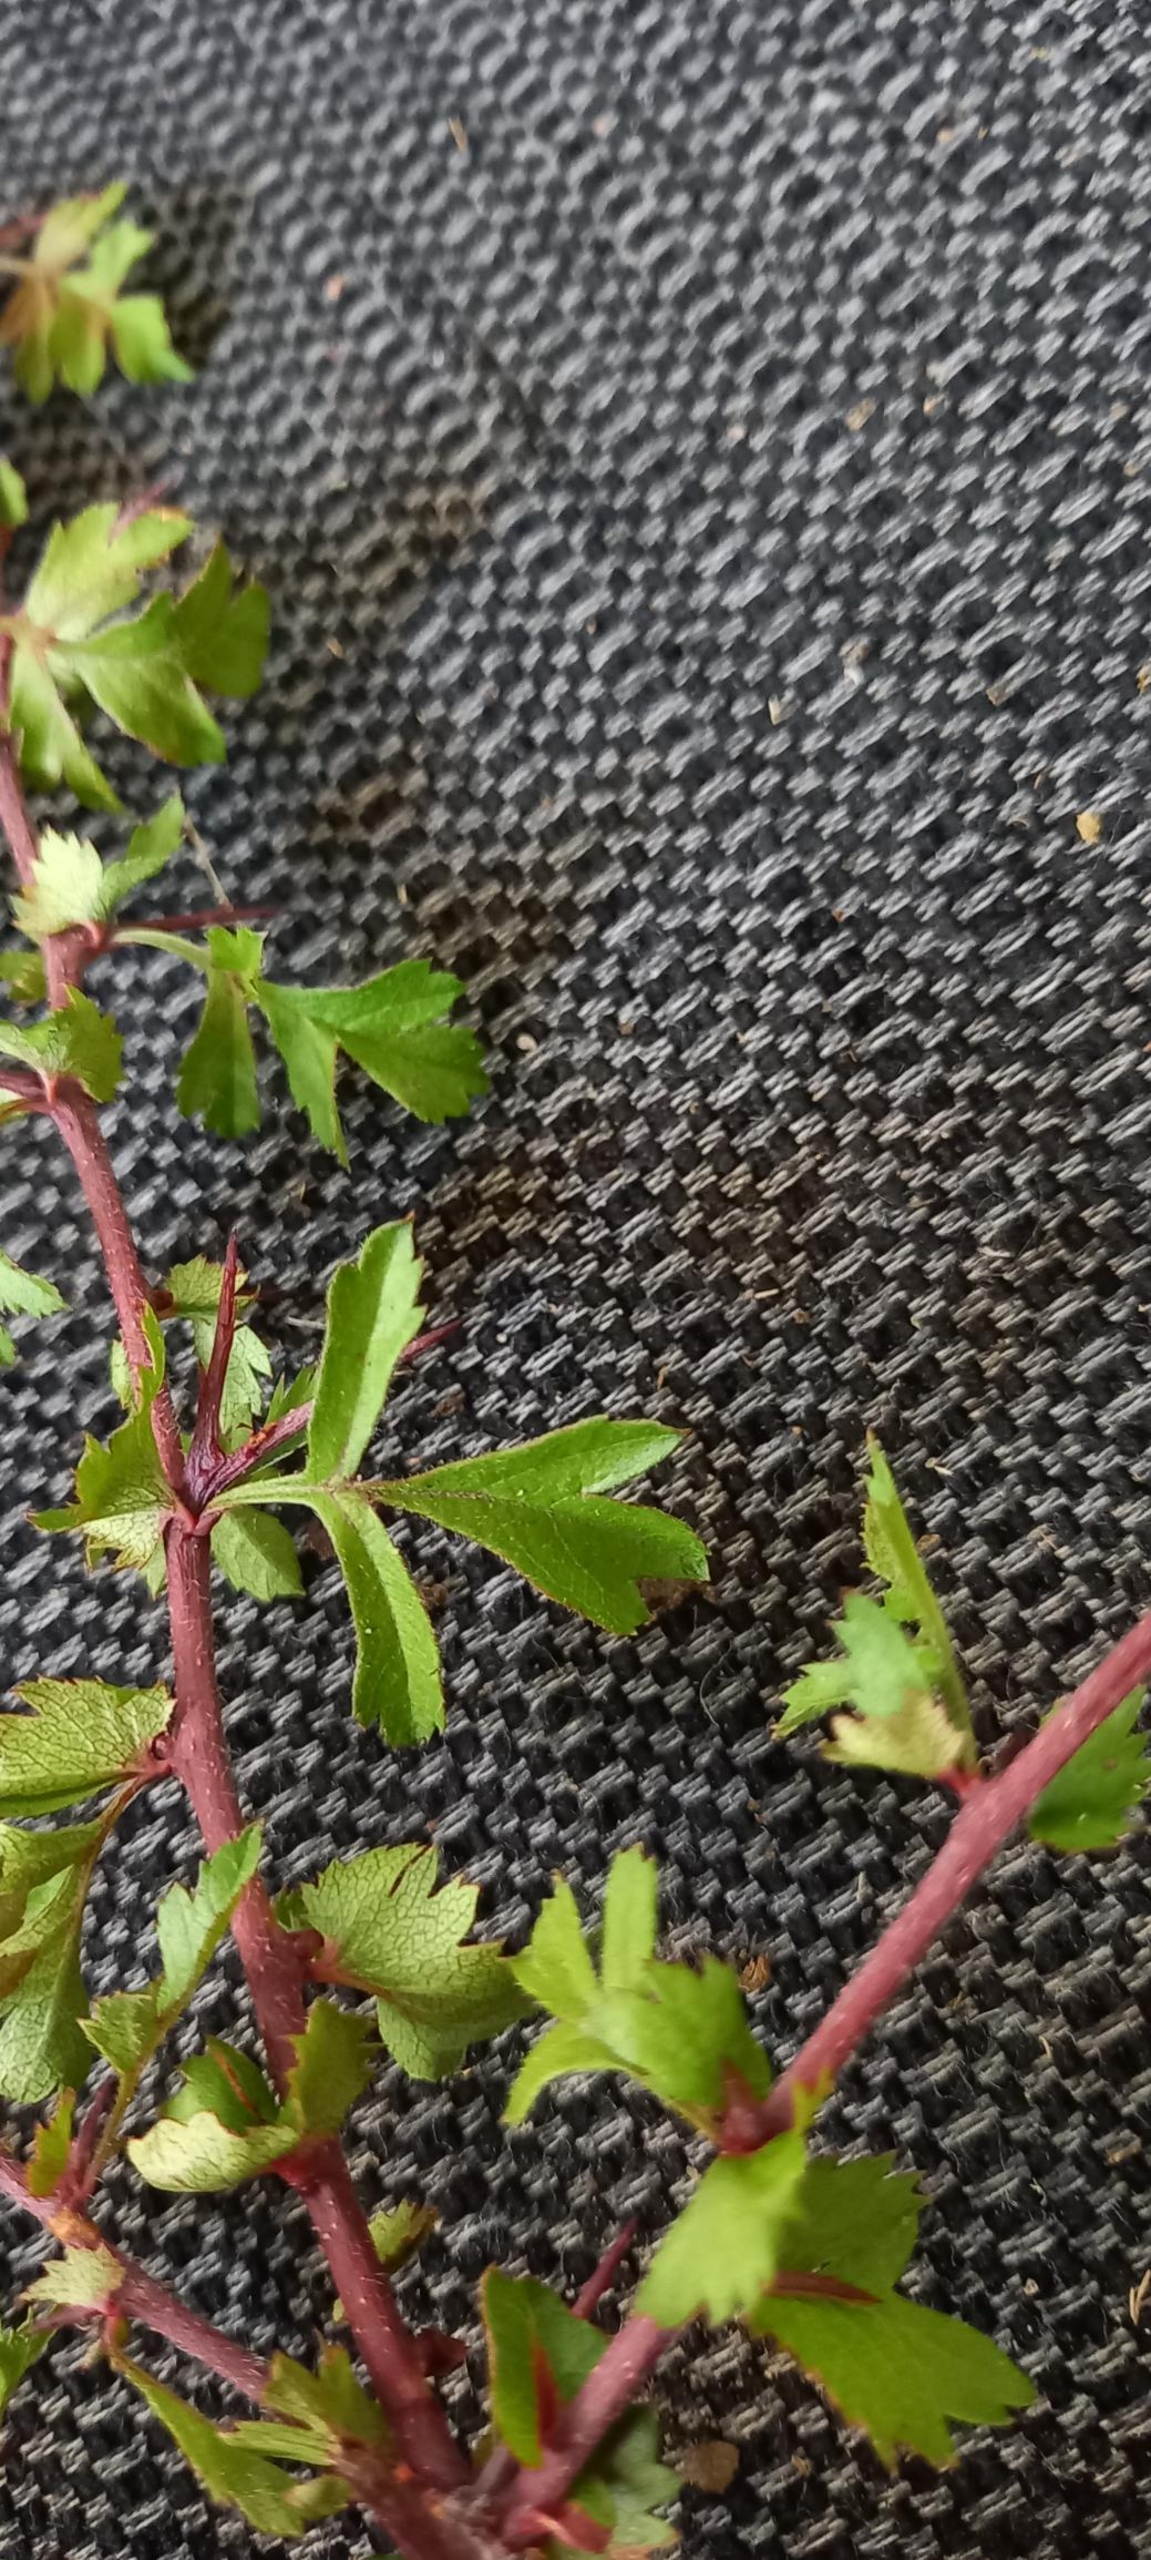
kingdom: Plantae
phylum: Tracheophyta
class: Magnoliopsida
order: Rosales
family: Rosaceae
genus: Crataegus
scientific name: Crataegus monogyna
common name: Engriflet hvidtjørn
